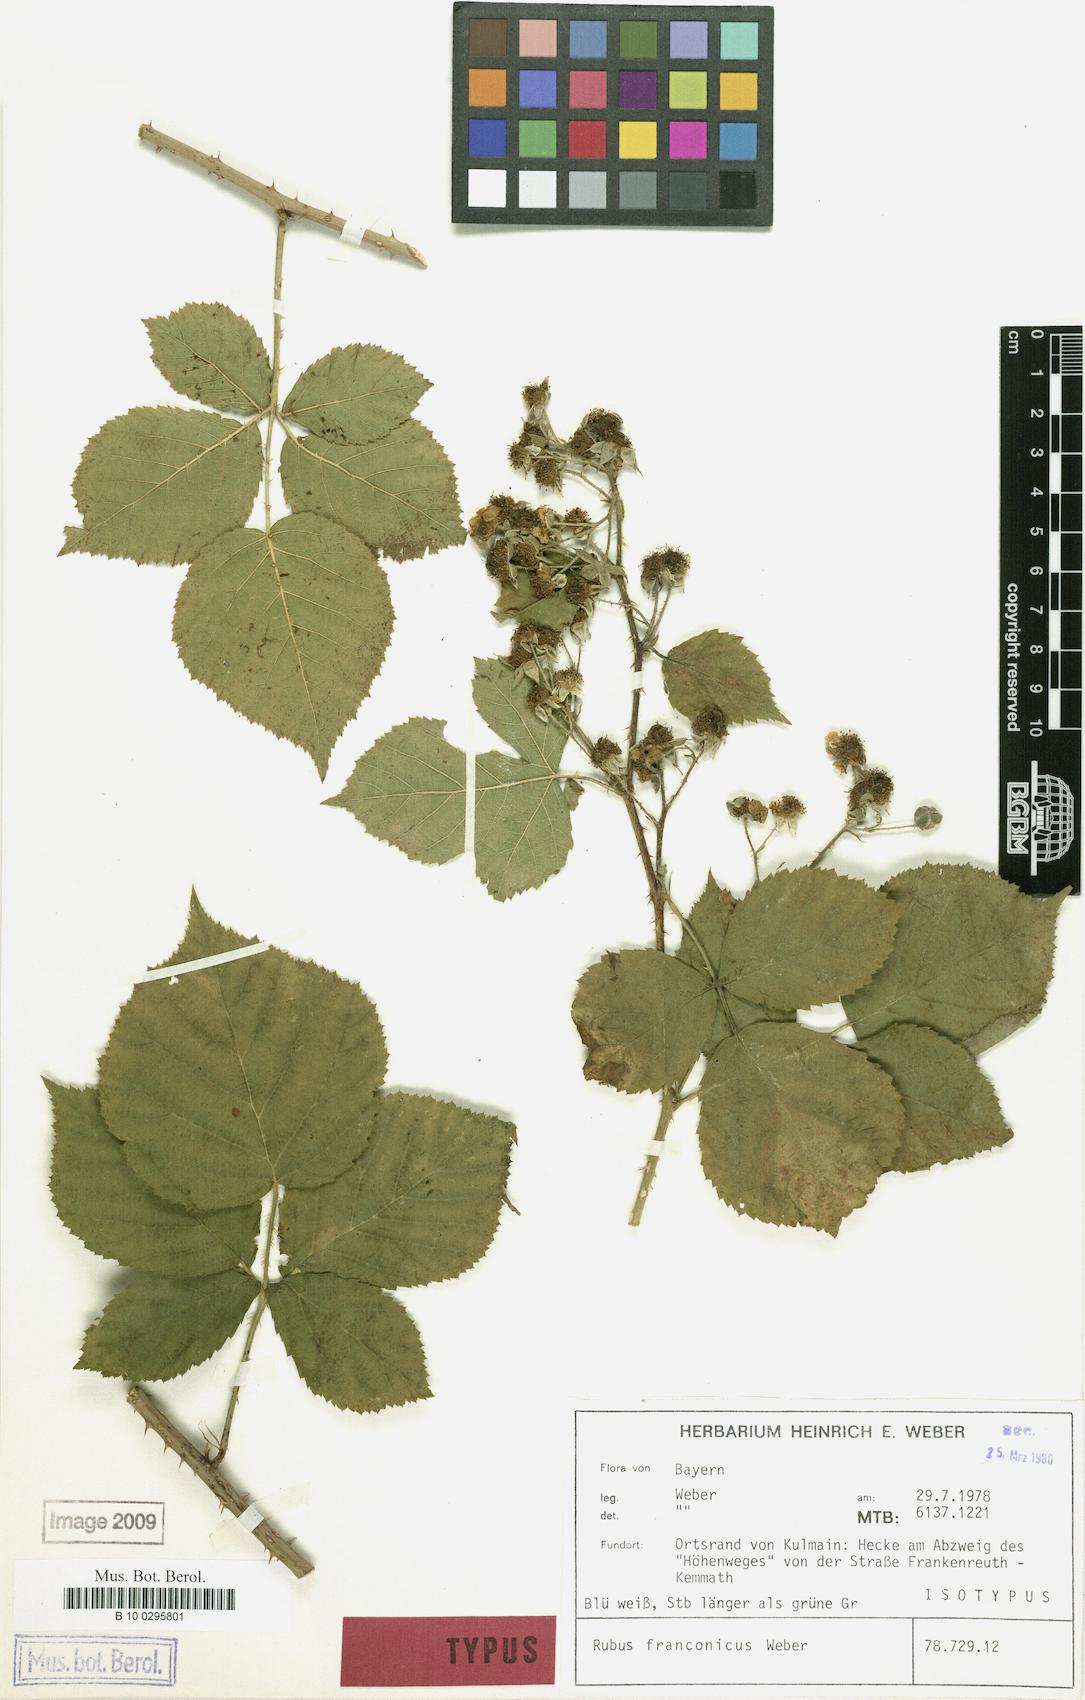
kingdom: Plantae
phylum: Tracheophyta
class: Magnoliopsida
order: Rosales
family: Rosaceae
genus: Rubus
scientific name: Rubus franconicus
